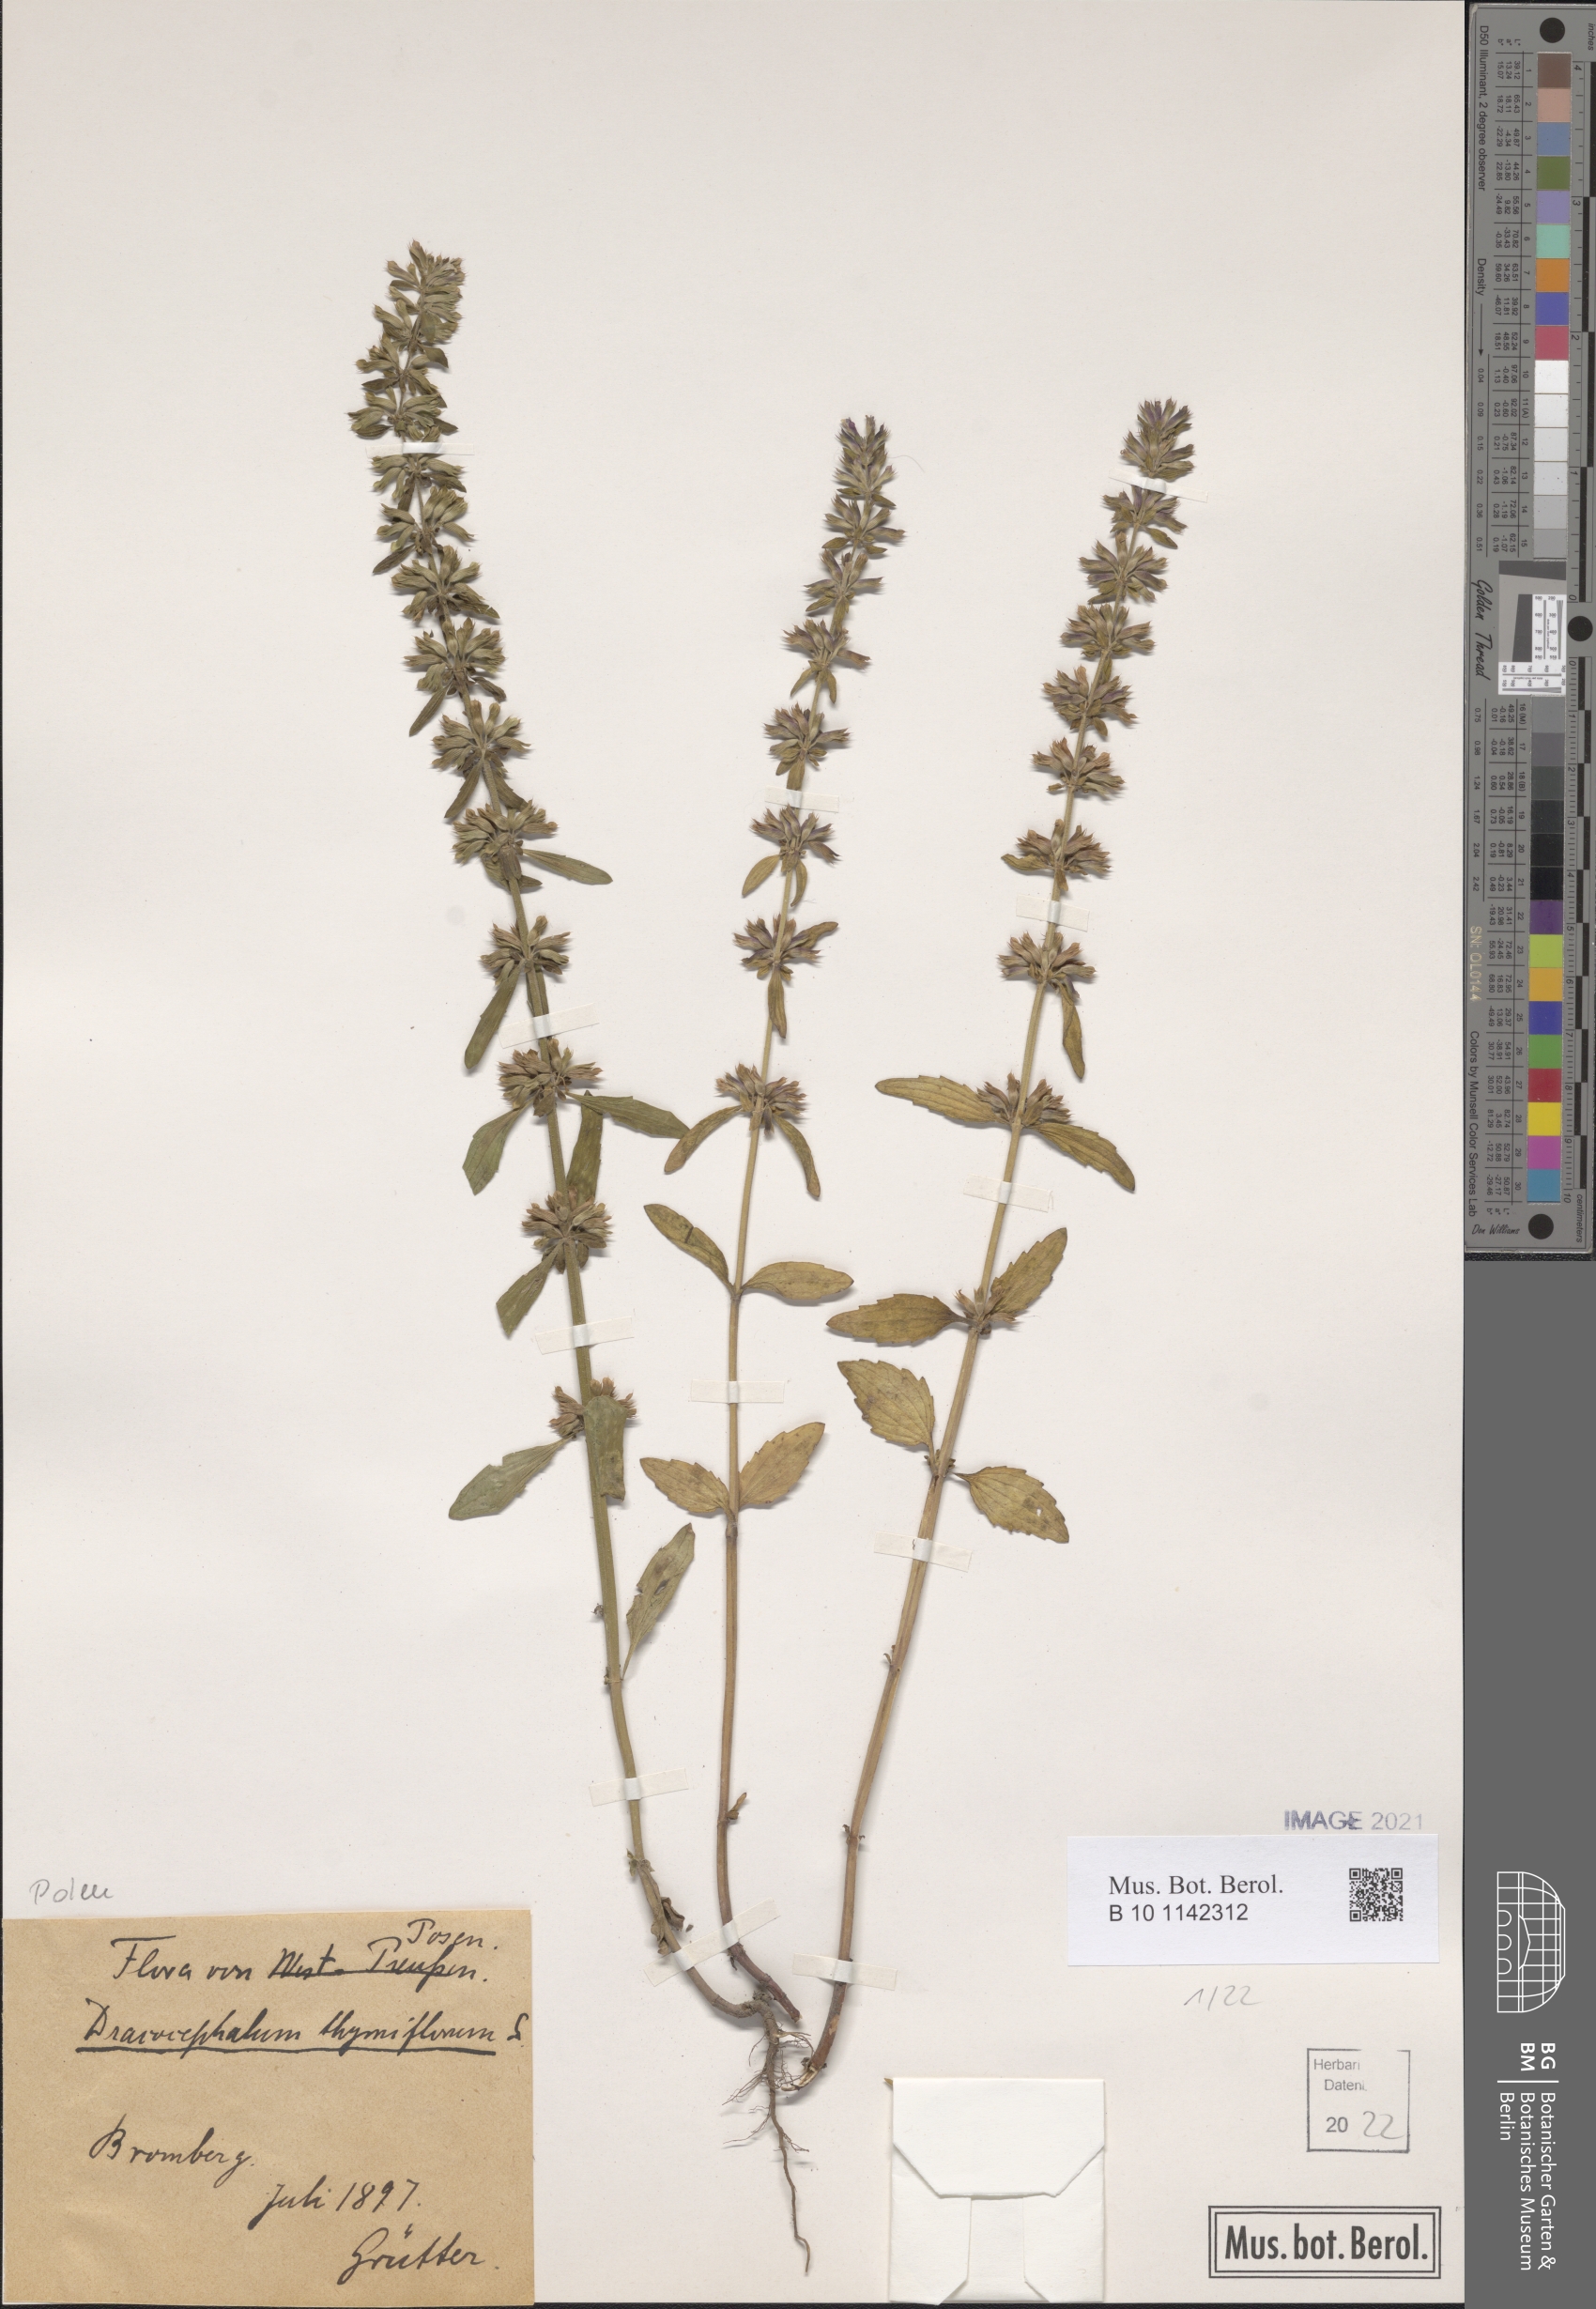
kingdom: Plantae
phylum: Tracheophyta
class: Magnoliopsida
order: Lamiales
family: Lamiaceae
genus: Dracocephalum
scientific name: Dracocephalum thymiflorum
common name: Thymeleaf dragonhead
